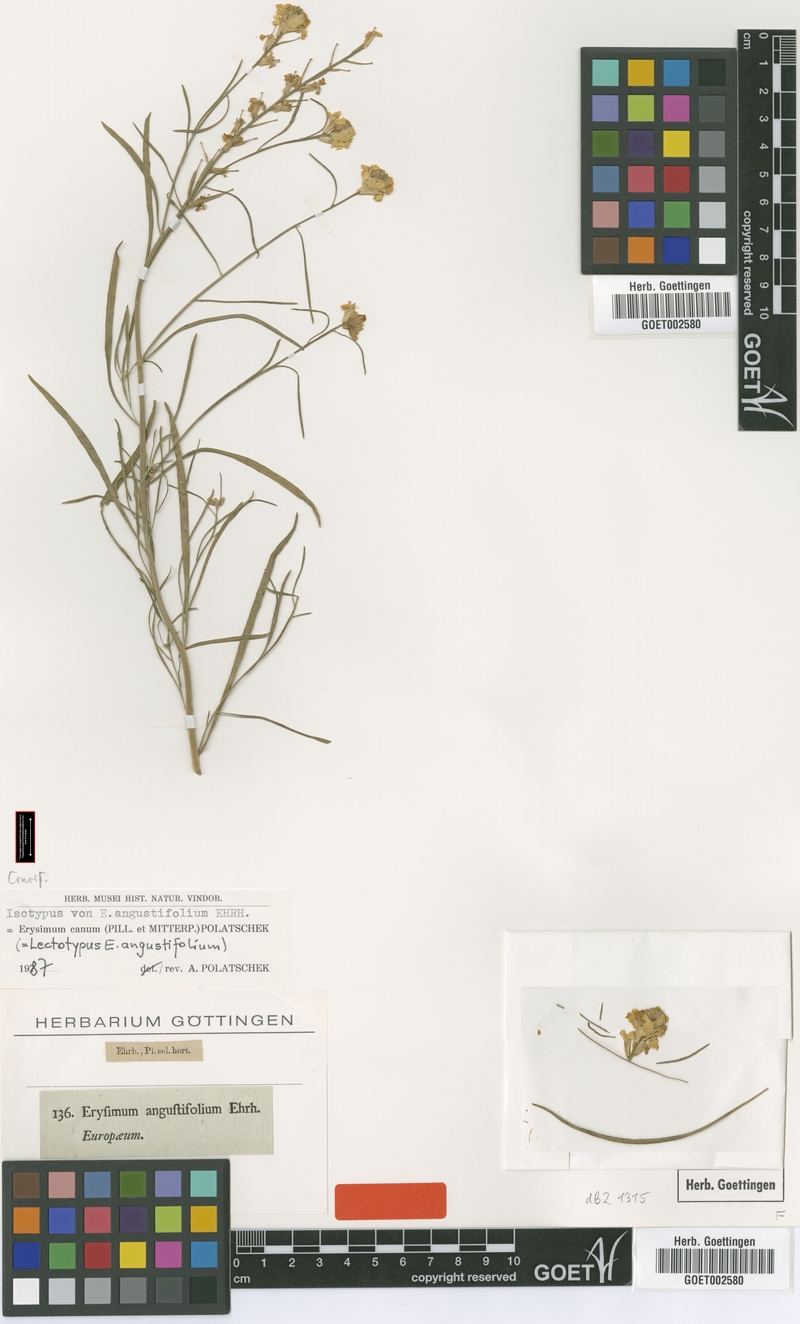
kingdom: Plantae
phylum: Tracheophyta
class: Magnoliopsida
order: Brassicales
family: Brassicaceae
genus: Erysimum
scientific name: Erysimum canum
